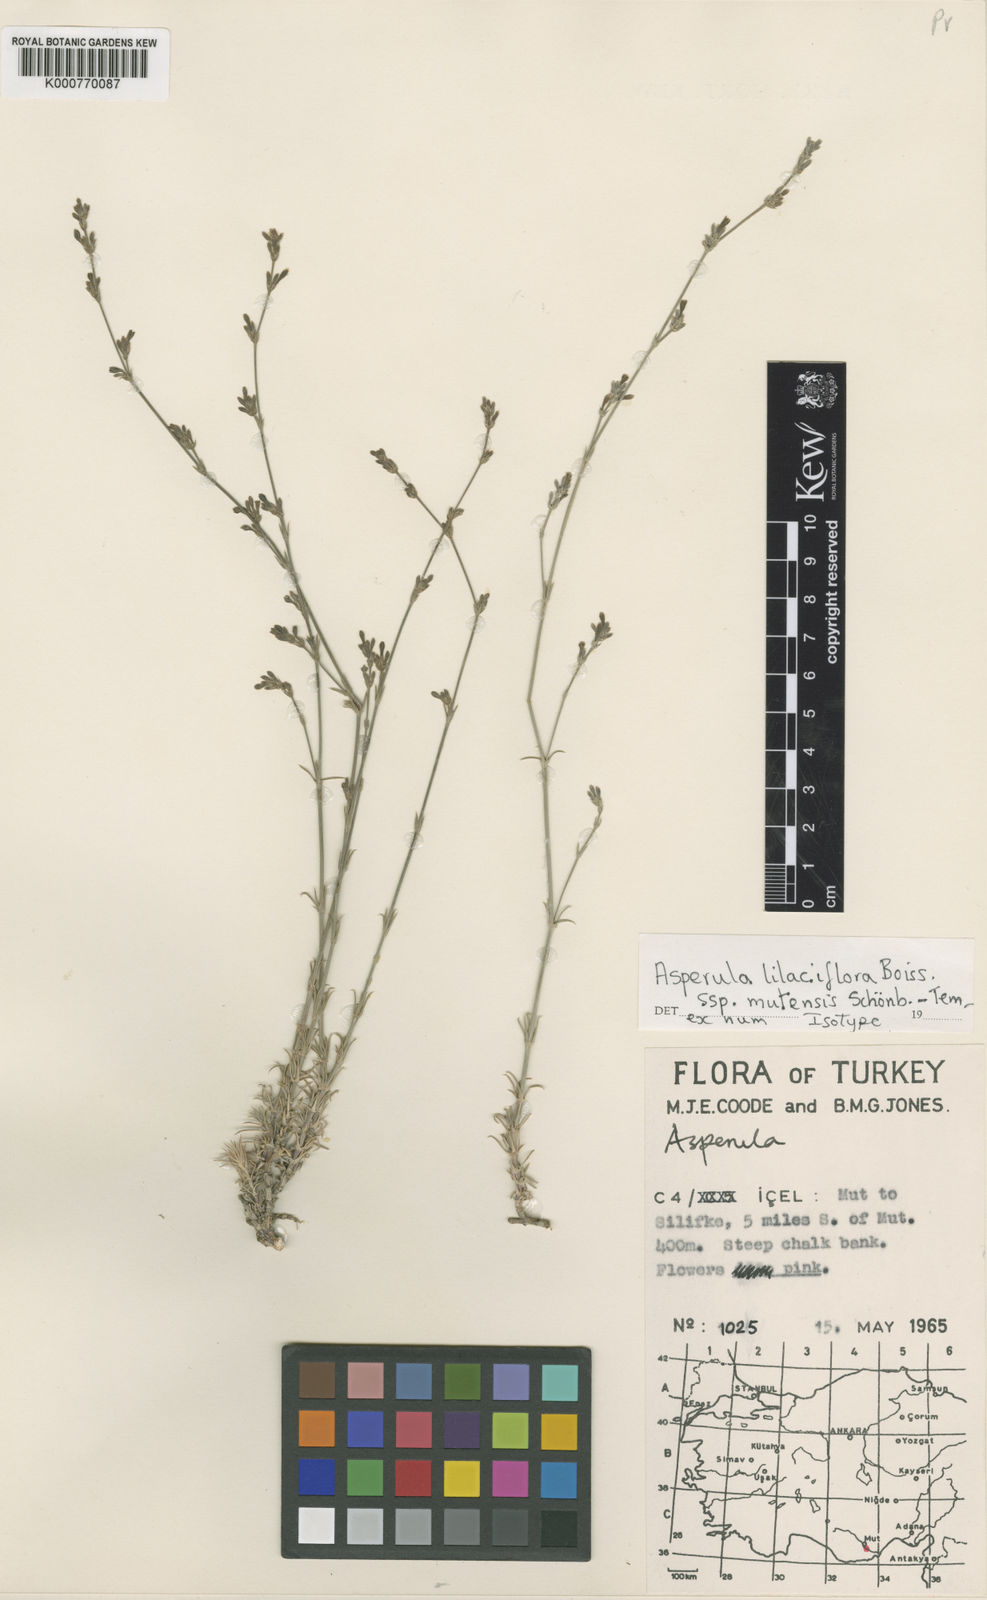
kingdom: Plantae
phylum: Tracheophyta
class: Magnoliopsida
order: Gentianales
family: Rubiaceae
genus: Cynanchica
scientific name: Cynanchica lilaciflora
